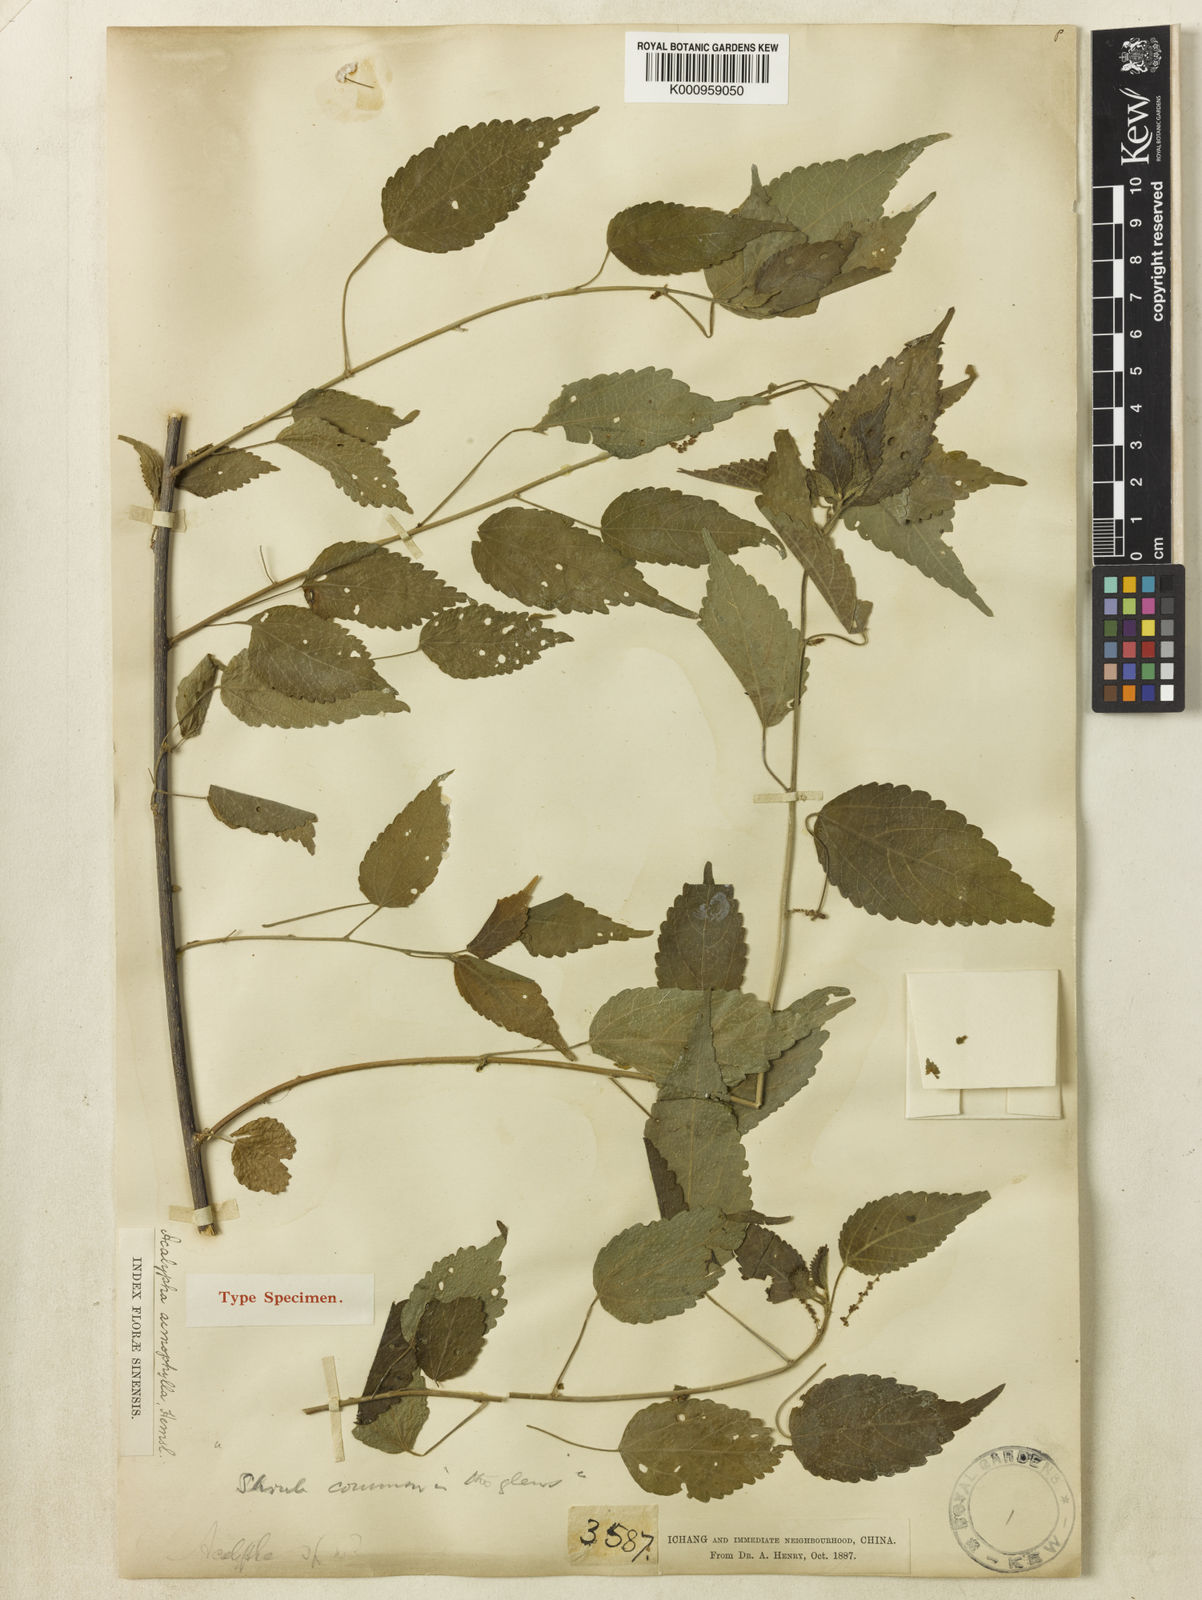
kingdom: Plantae
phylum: Tracheophyta
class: Magnoliopsida
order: Malpighiales
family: Euphorbiaceae
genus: Acalypha
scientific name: Acalypha acmophylla
